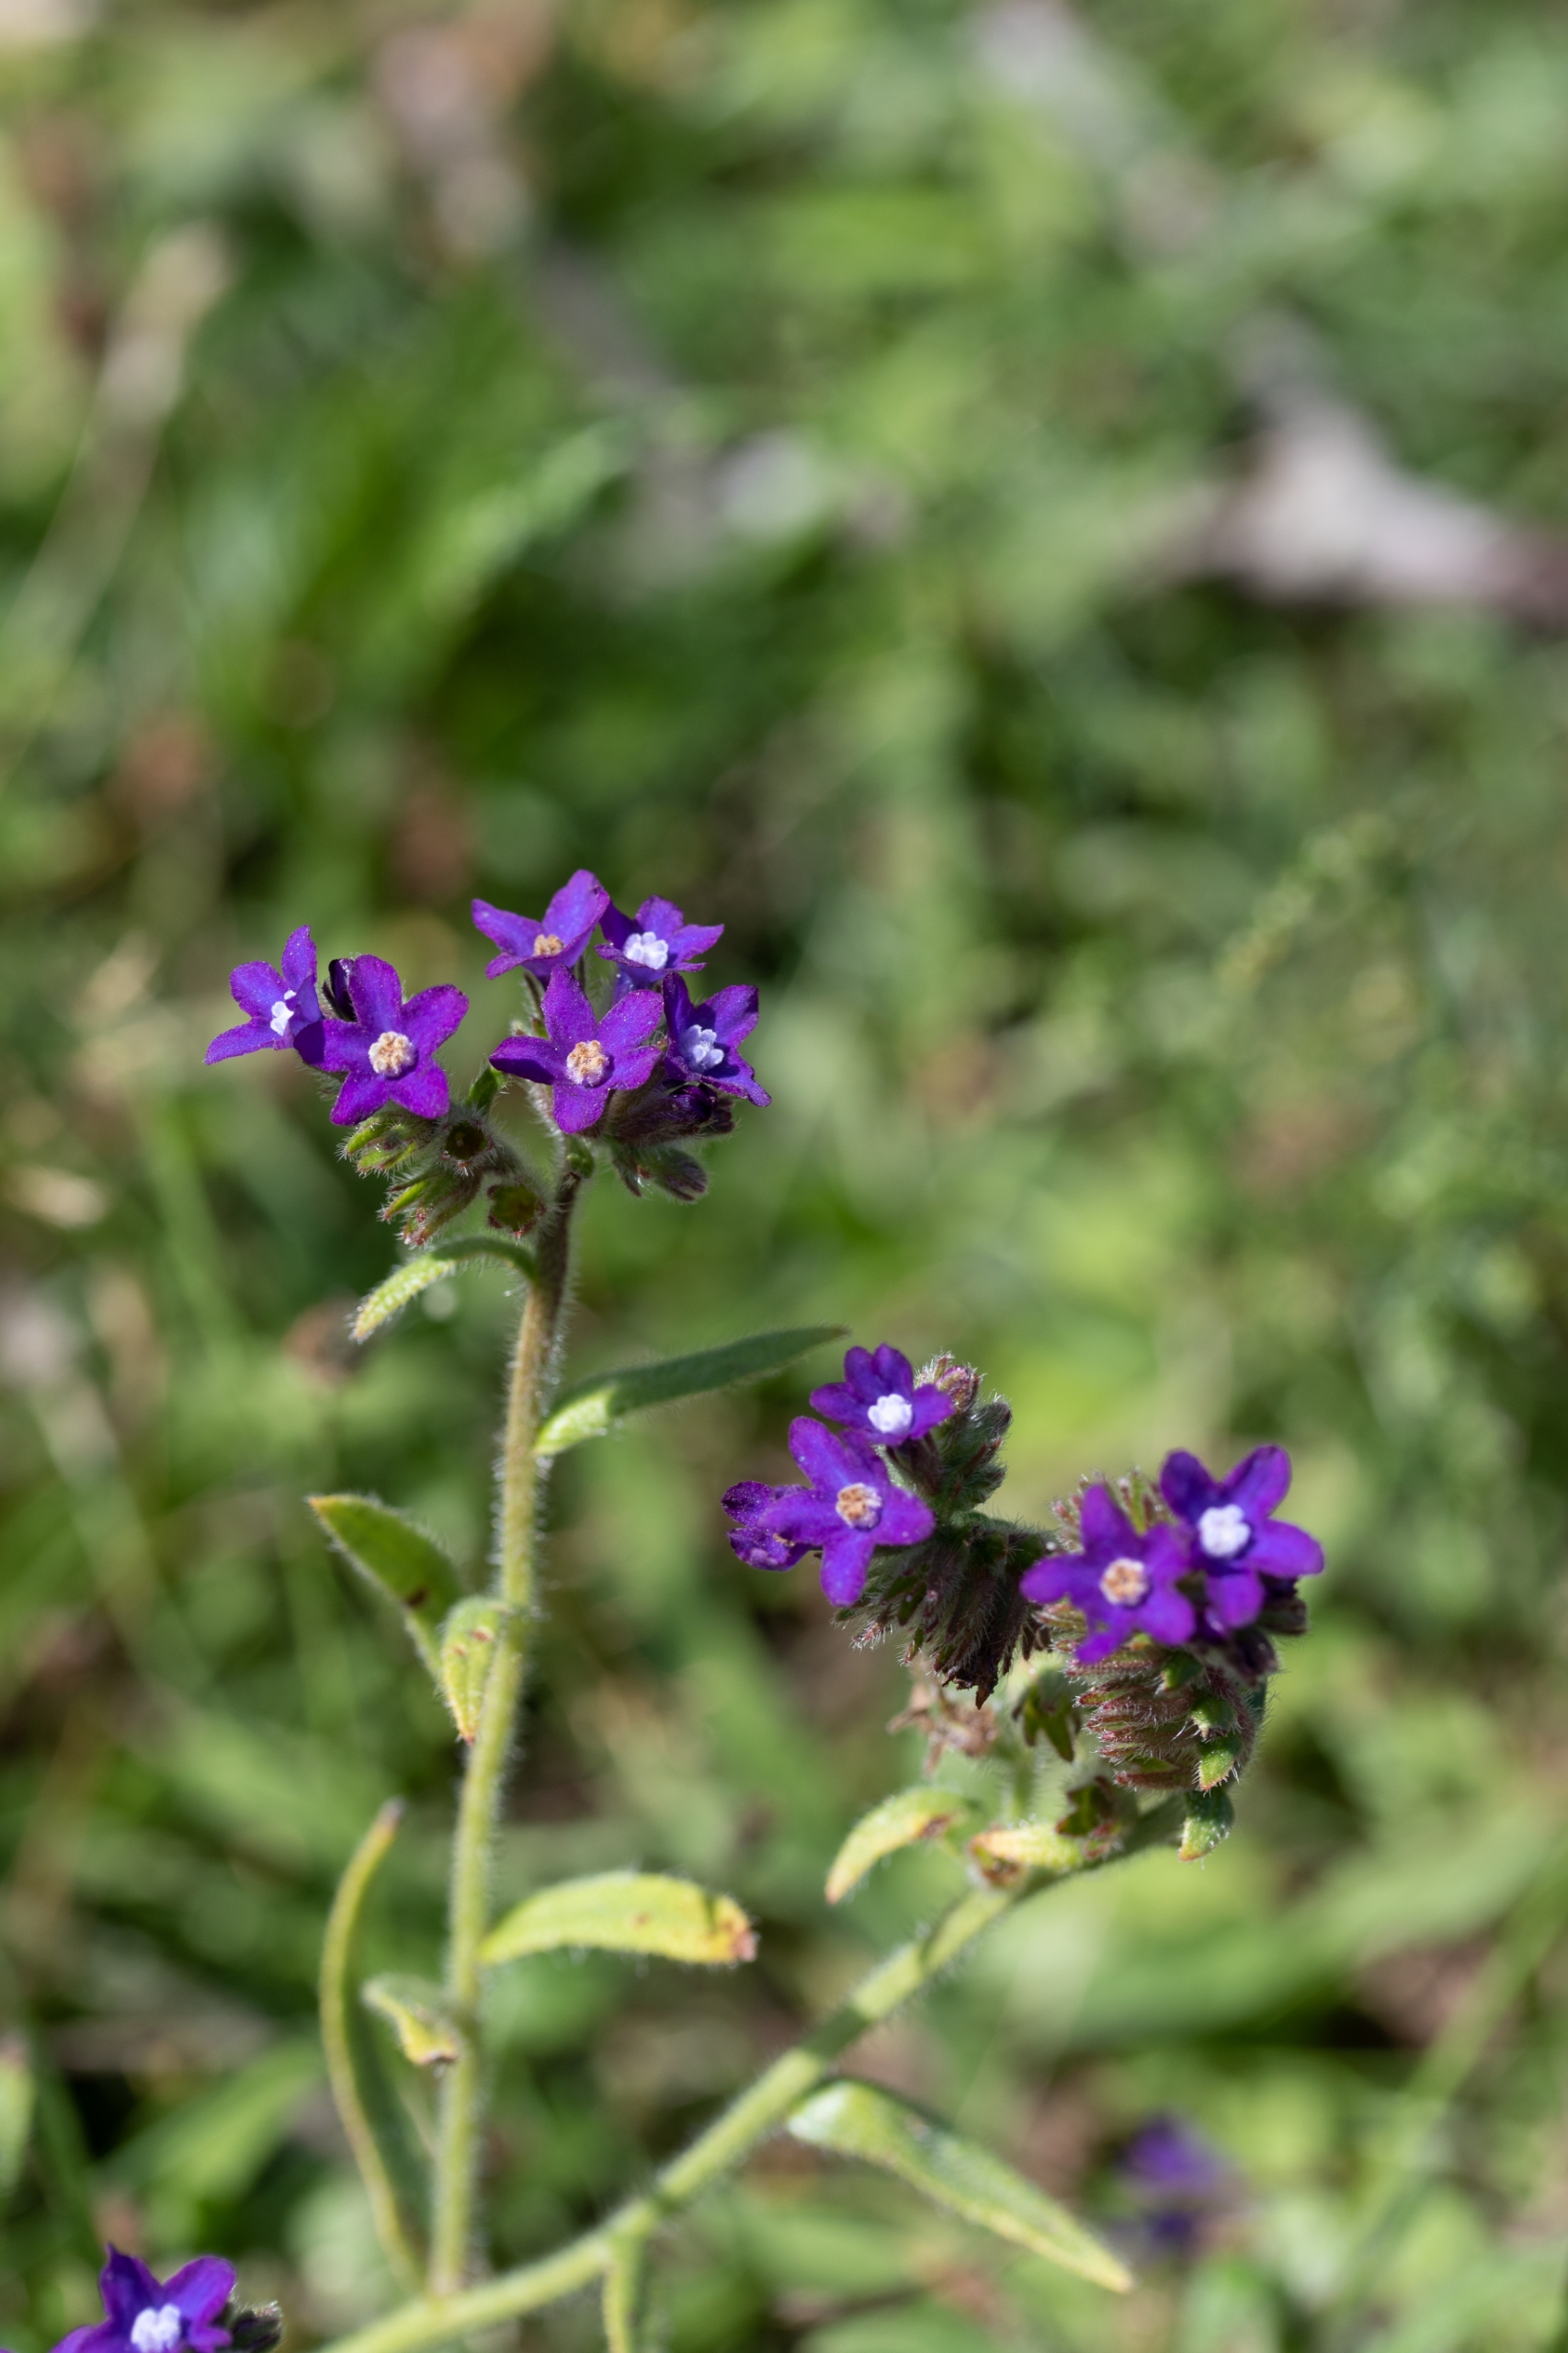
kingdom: Plantae
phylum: Tracheophyta
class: Magnoliopsida
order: Boraginales
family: Boraginaceae
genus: Anchusa
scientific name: Anchusa officinalis
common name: Læge-oksetunge
